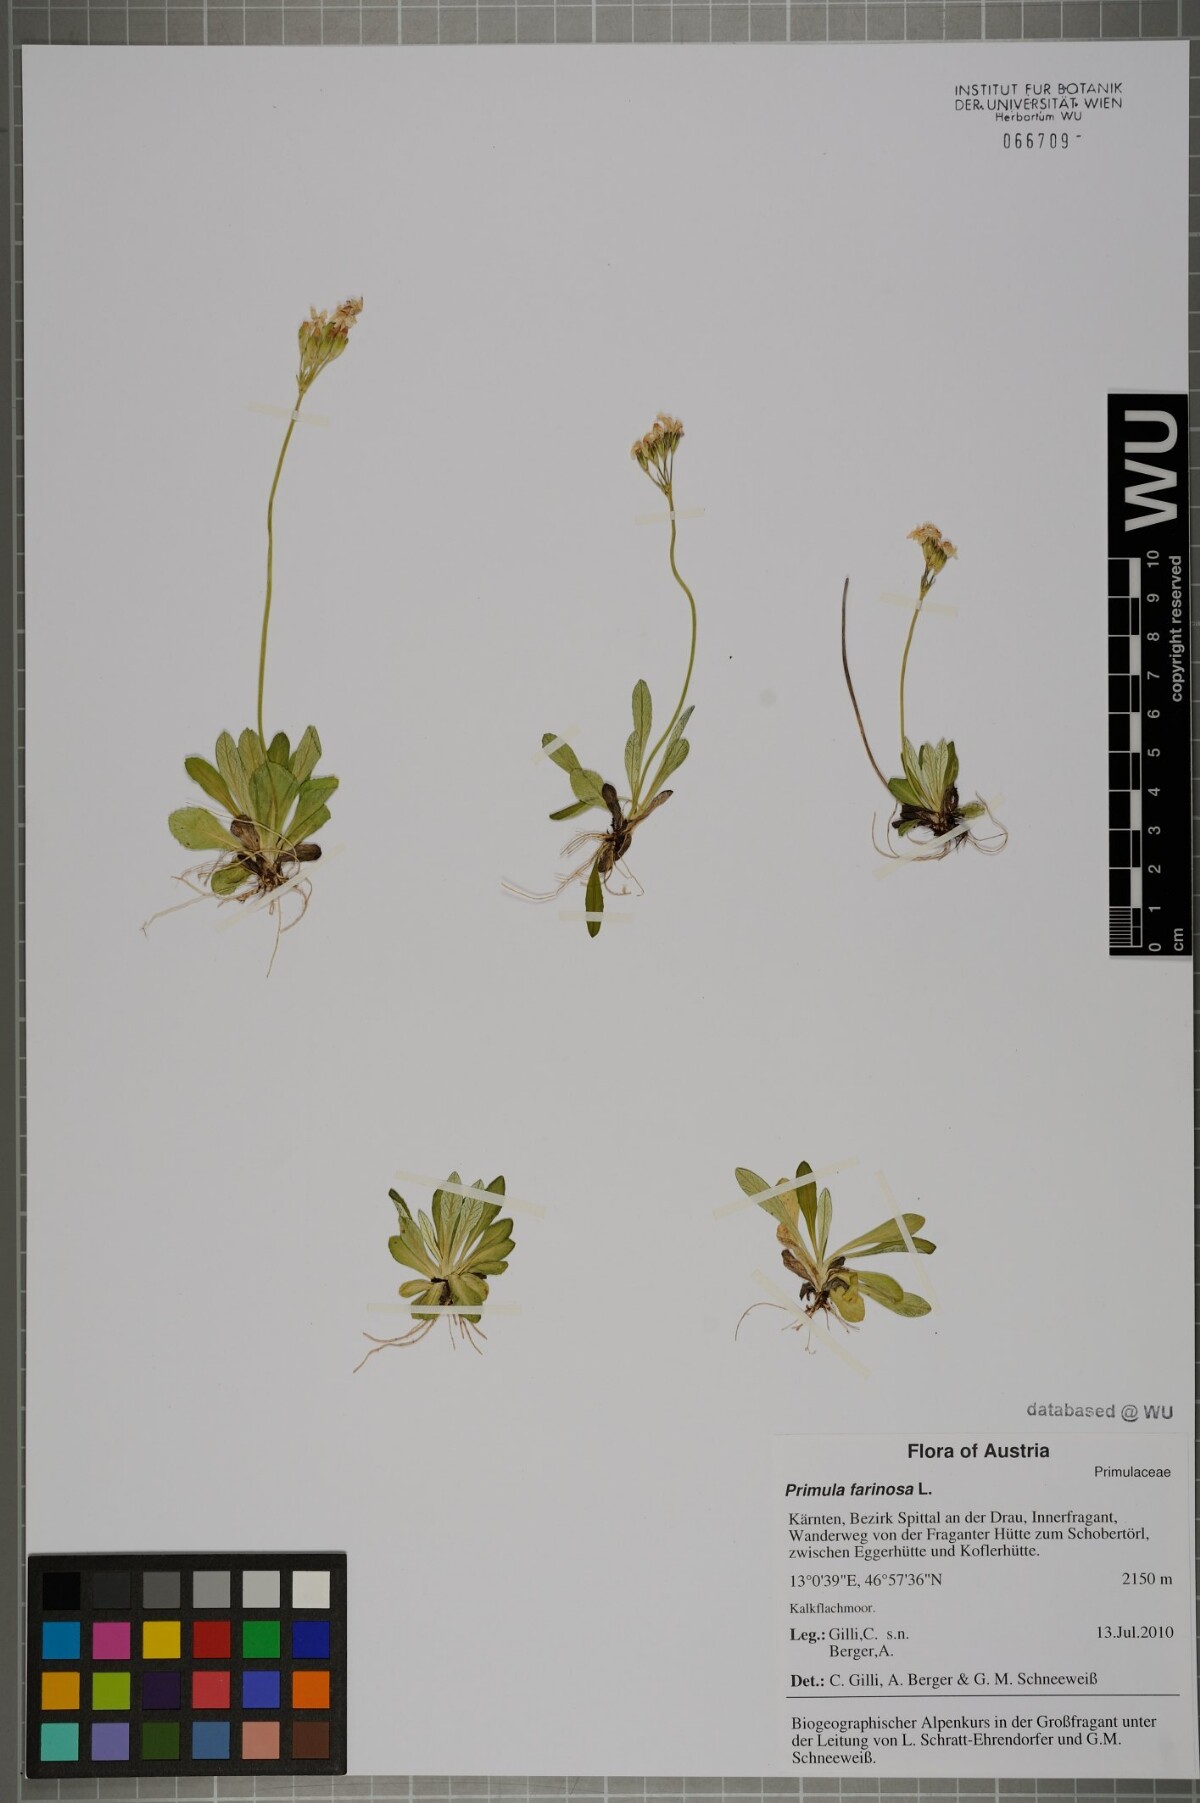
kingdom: Plantae
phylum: Tracheophyta
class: Magnoliopsida
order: Ericales
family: Primulaceae
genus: Primula
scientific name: Primula farinosa
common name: Bird's-eye primrose
